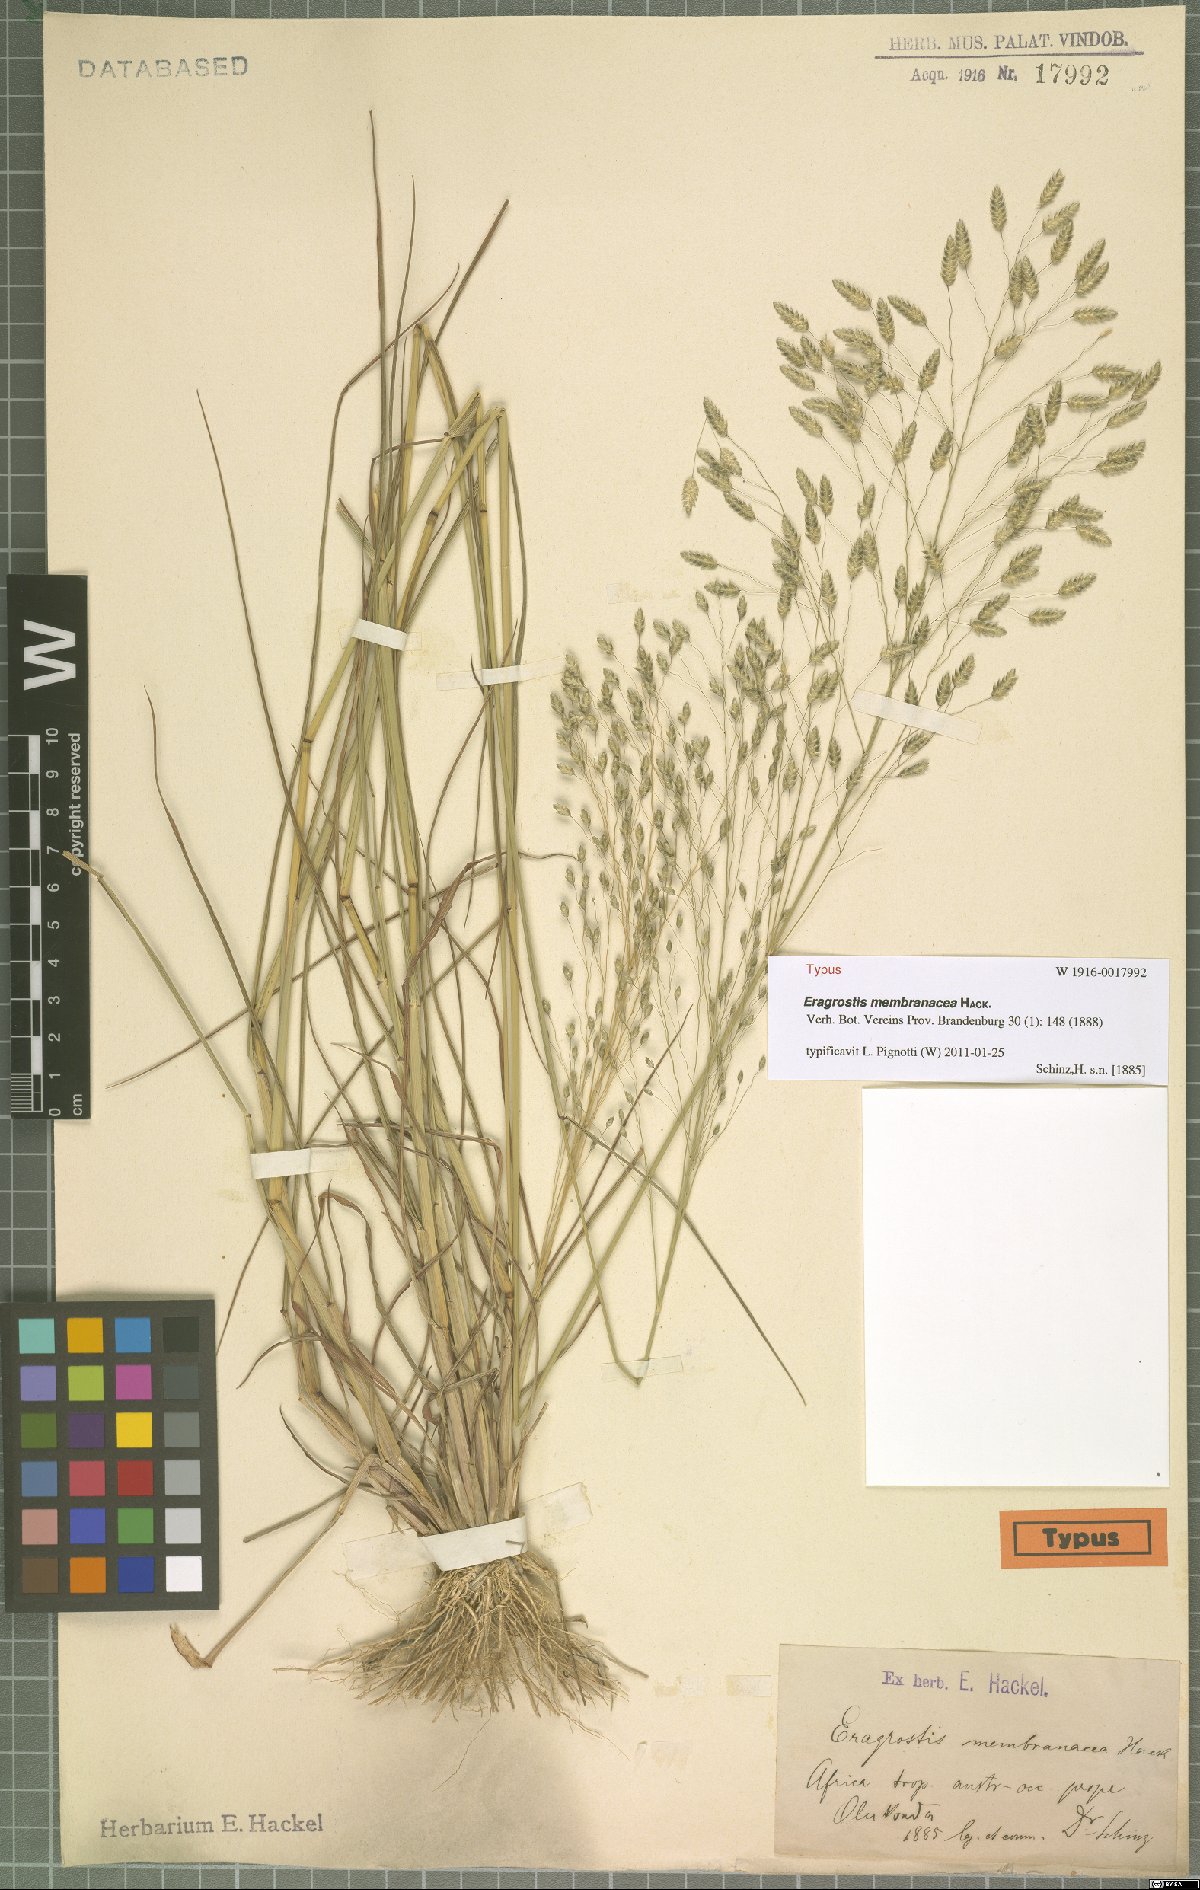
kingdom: Plantae
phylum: Tracheophyta
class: Liliopsida
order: Poales
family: Poaceae
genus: Eragrostis
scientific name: Eragrostis membranacea
